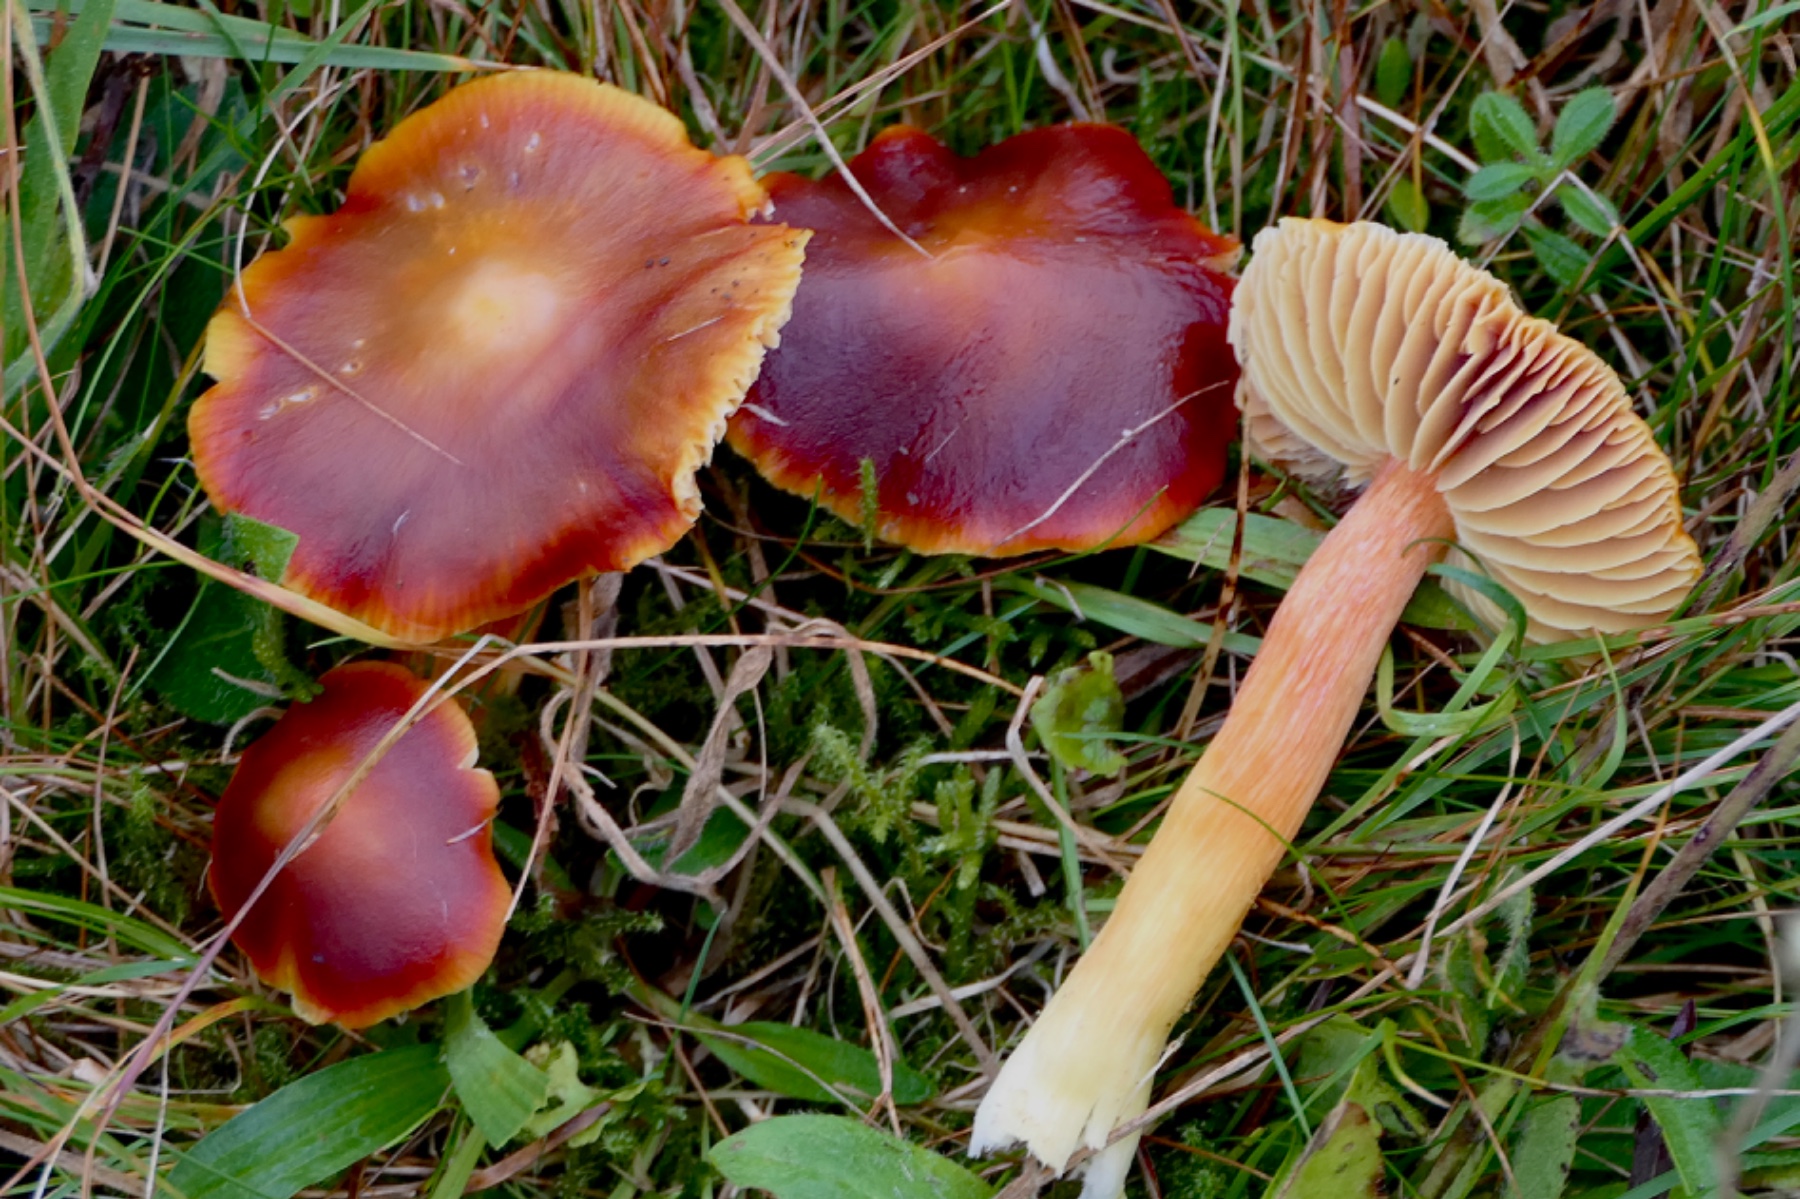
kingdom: Fungi
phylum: Basidiomycota
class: Agaricomycetes
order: Agaricales
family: Hygrophoraceae
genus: Hygrocybe
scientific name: Hygrocybe punicea
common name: skarlagen-vokshat
